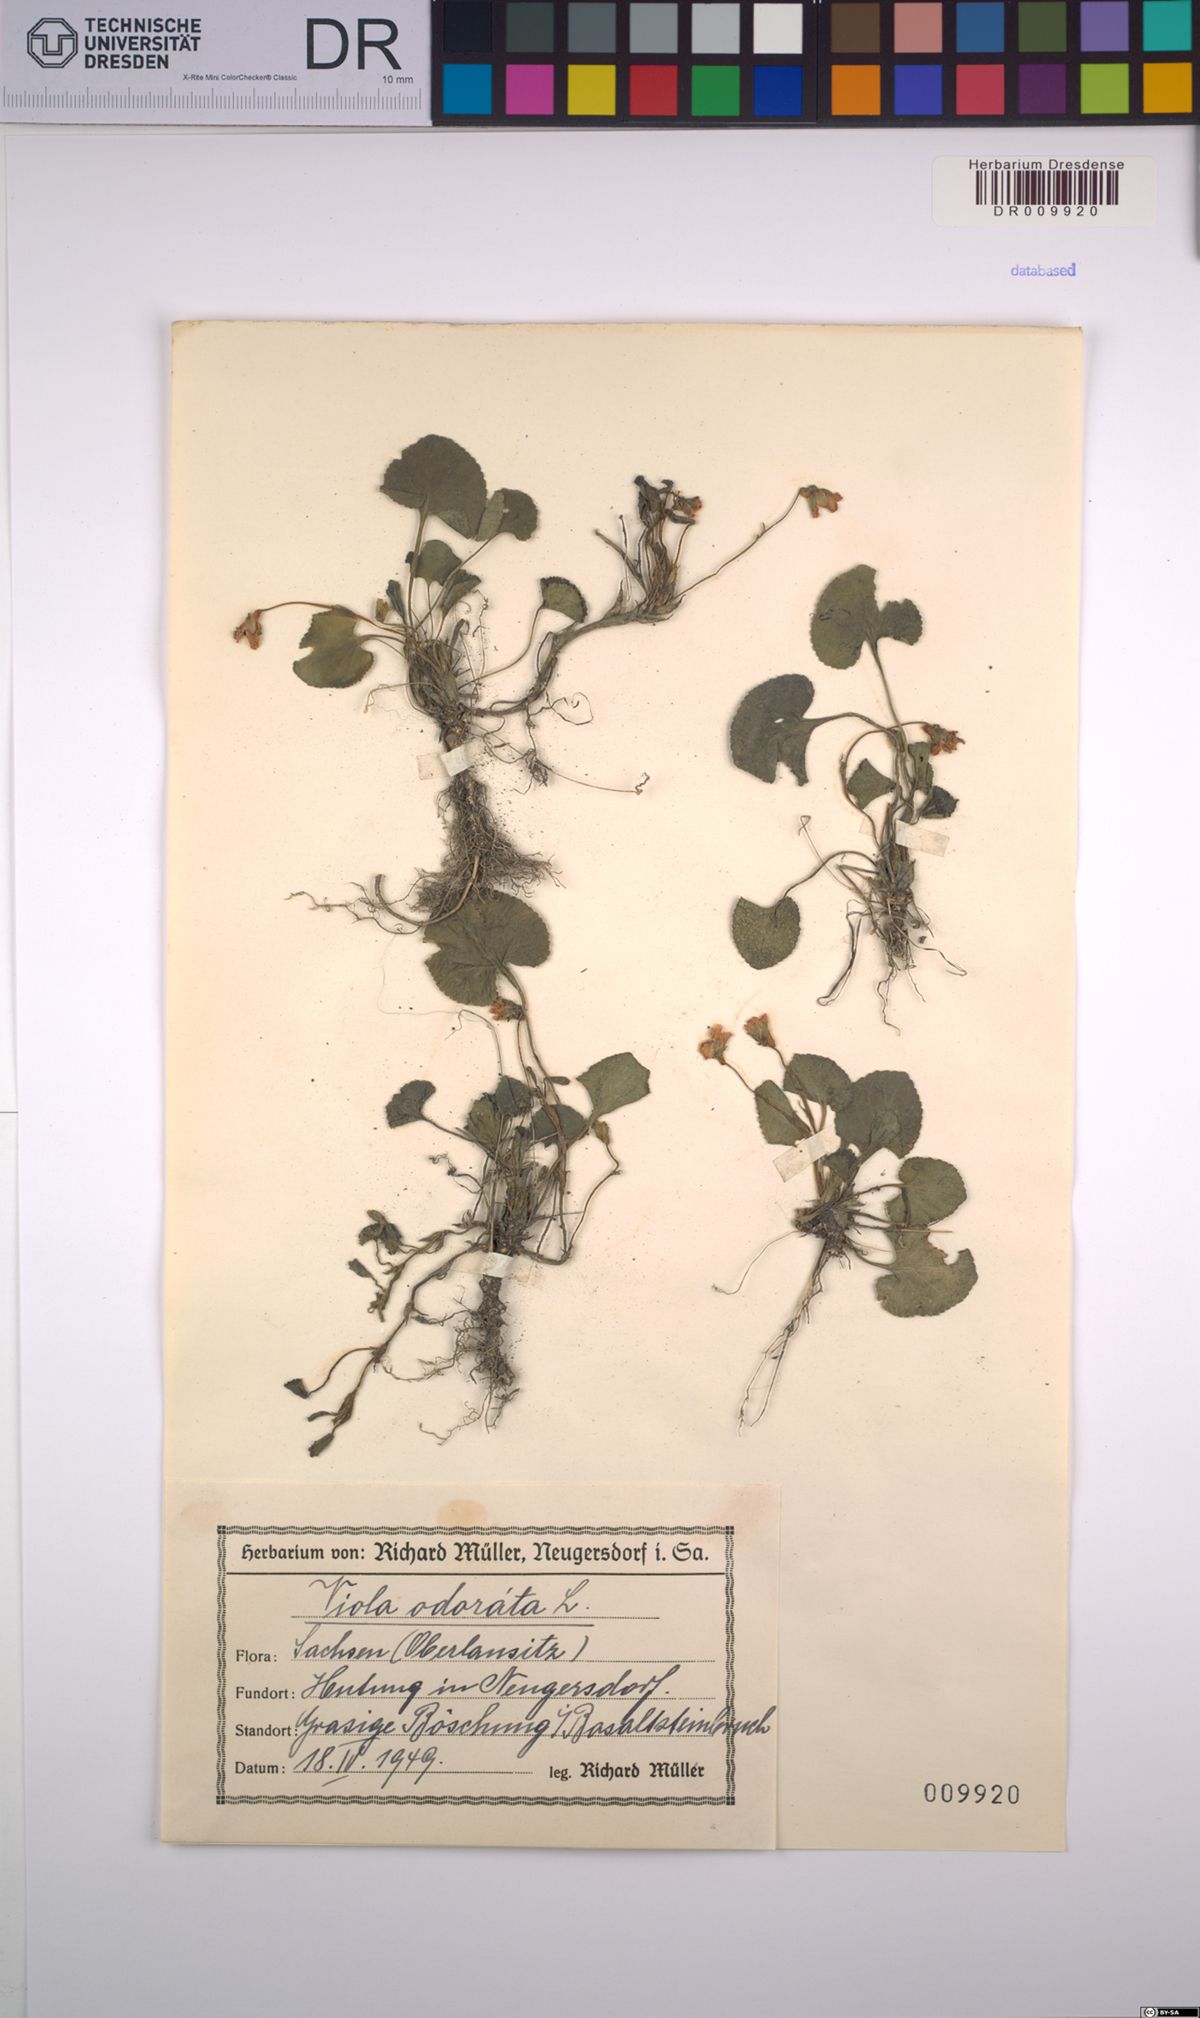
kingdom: Plantae
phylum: Tracheophyta
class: Magnoliopsida
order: Malpighiales
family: Violaceae
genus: Viola
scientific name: Viola odorata
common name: Sweet violet
